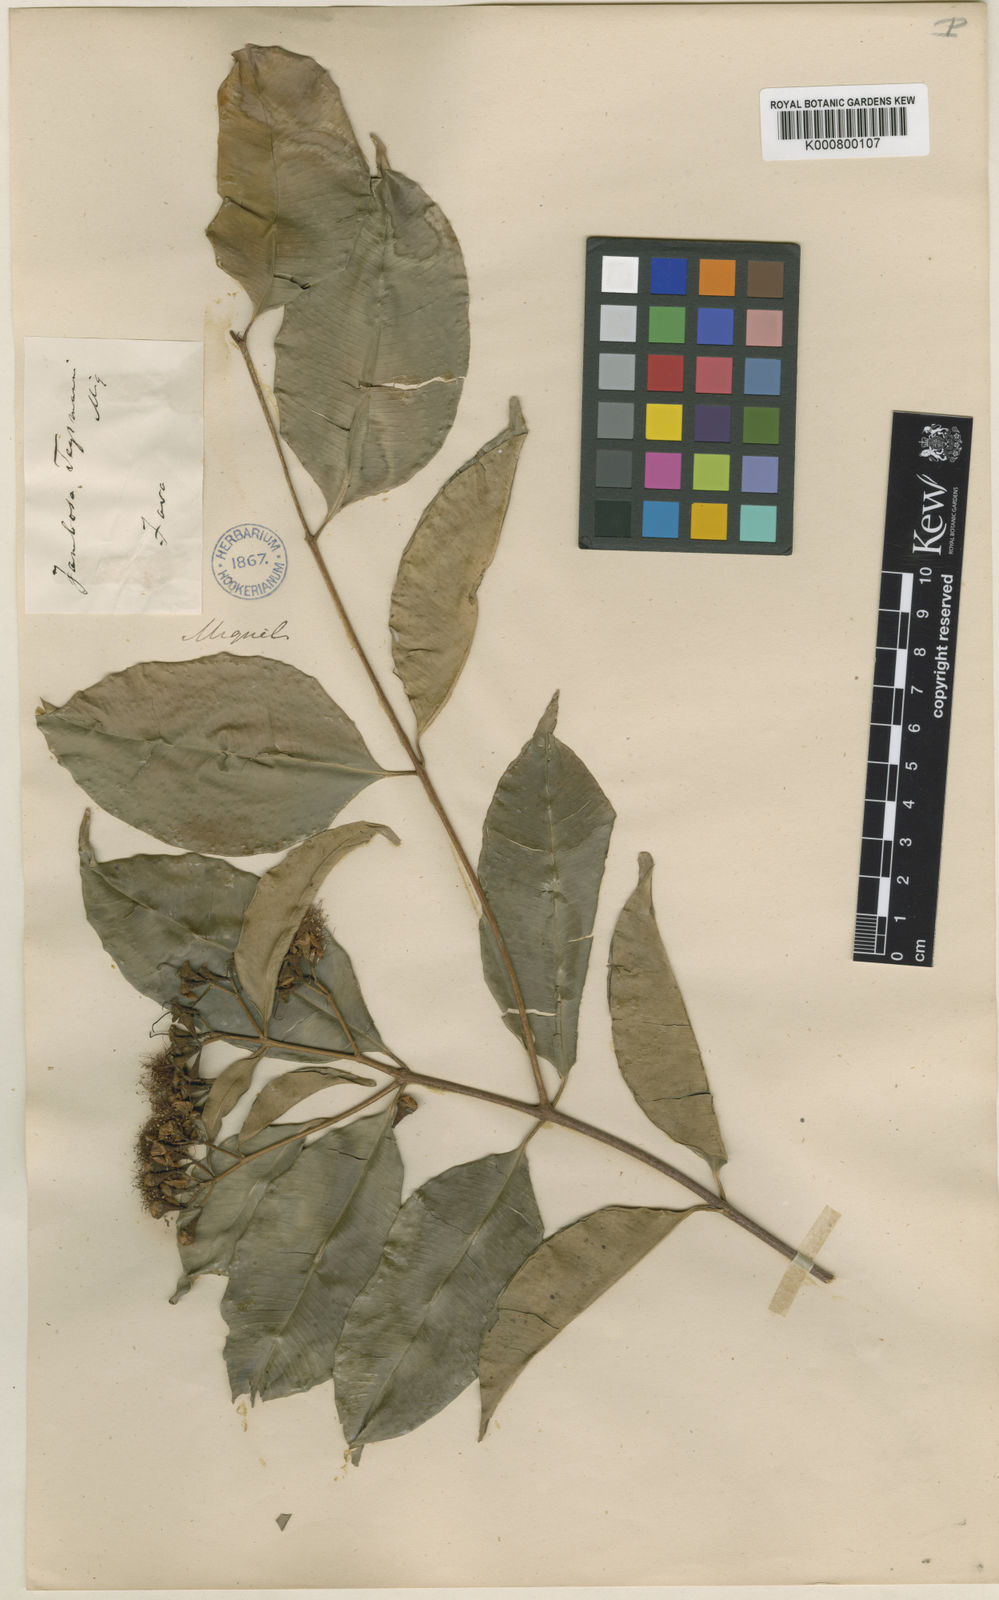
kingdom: Plantae
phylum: Tracheophyta
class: Magnoliopsida
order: Myrtales
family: Myrtaceae
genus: Syzygium
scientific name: Syzygium lineatum
